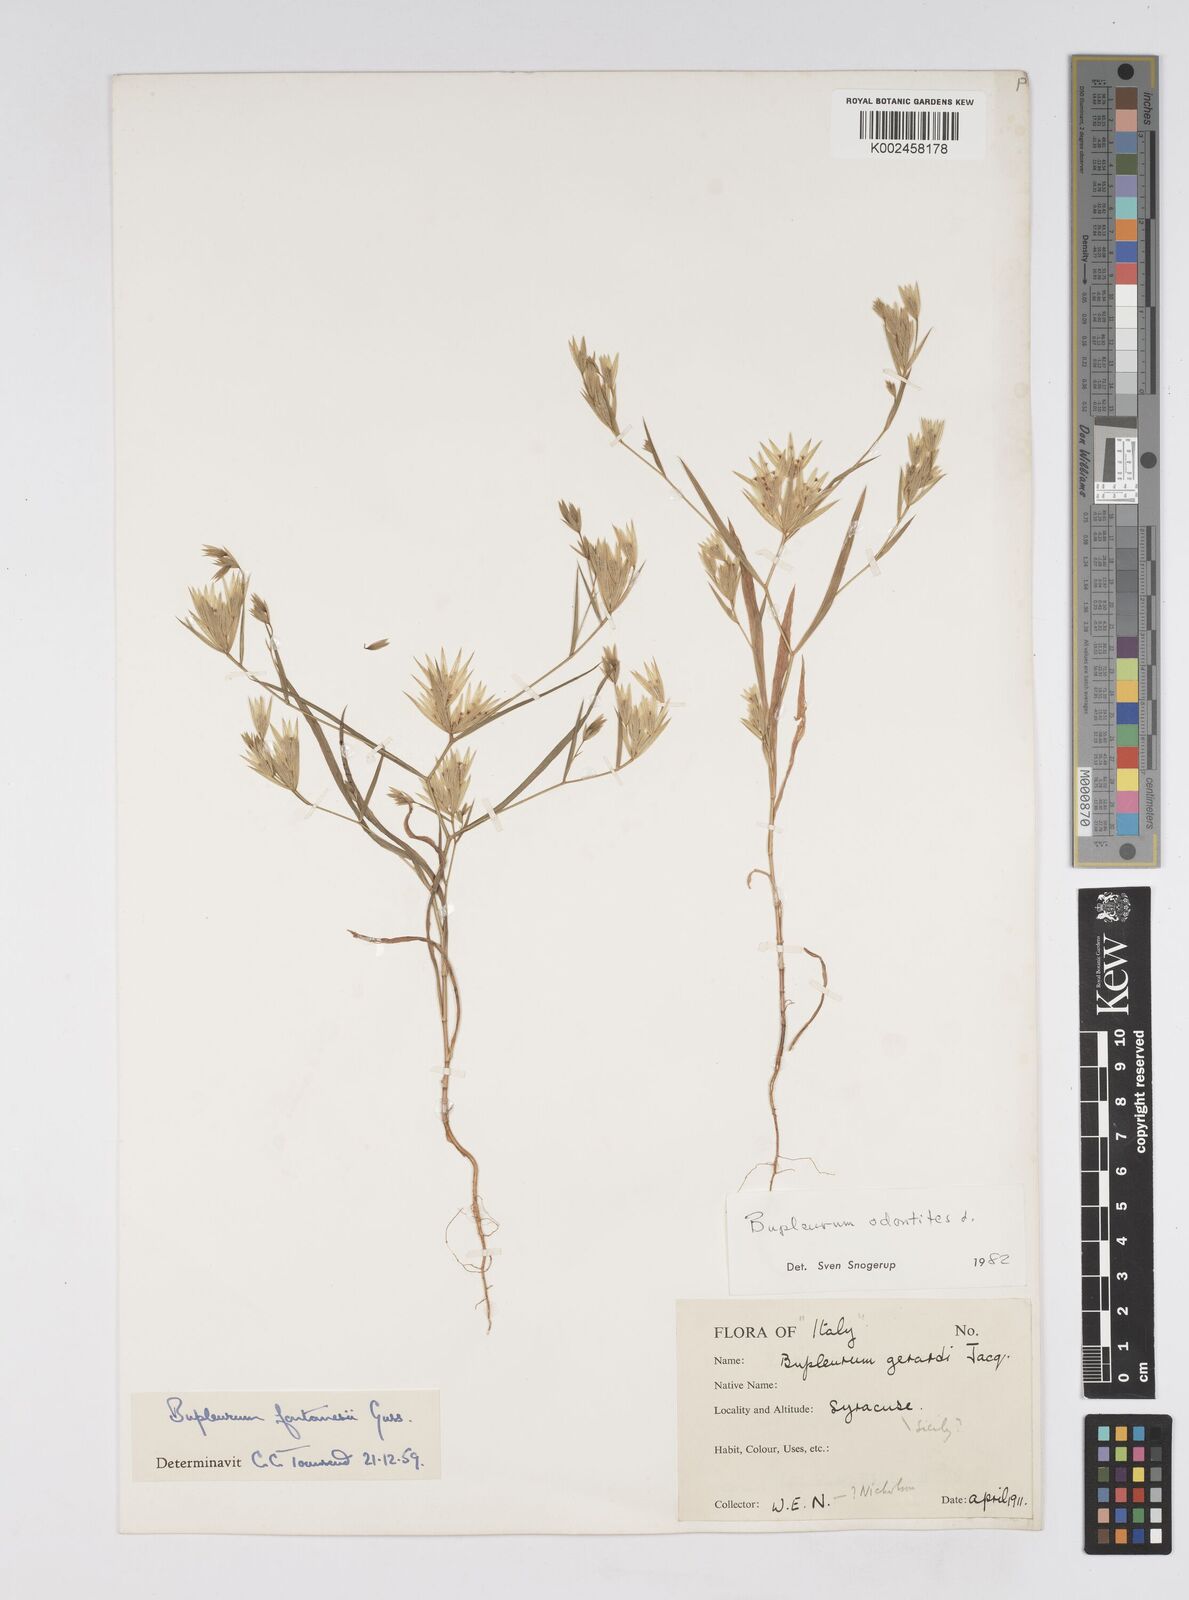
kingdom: Plantae
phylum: Tracheophyta
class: Magnoliopsida
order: Apiales
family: Apiaceae
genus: Bupleurum
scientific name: Bupleurum odontites
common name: Narrowleaf thorow wax
